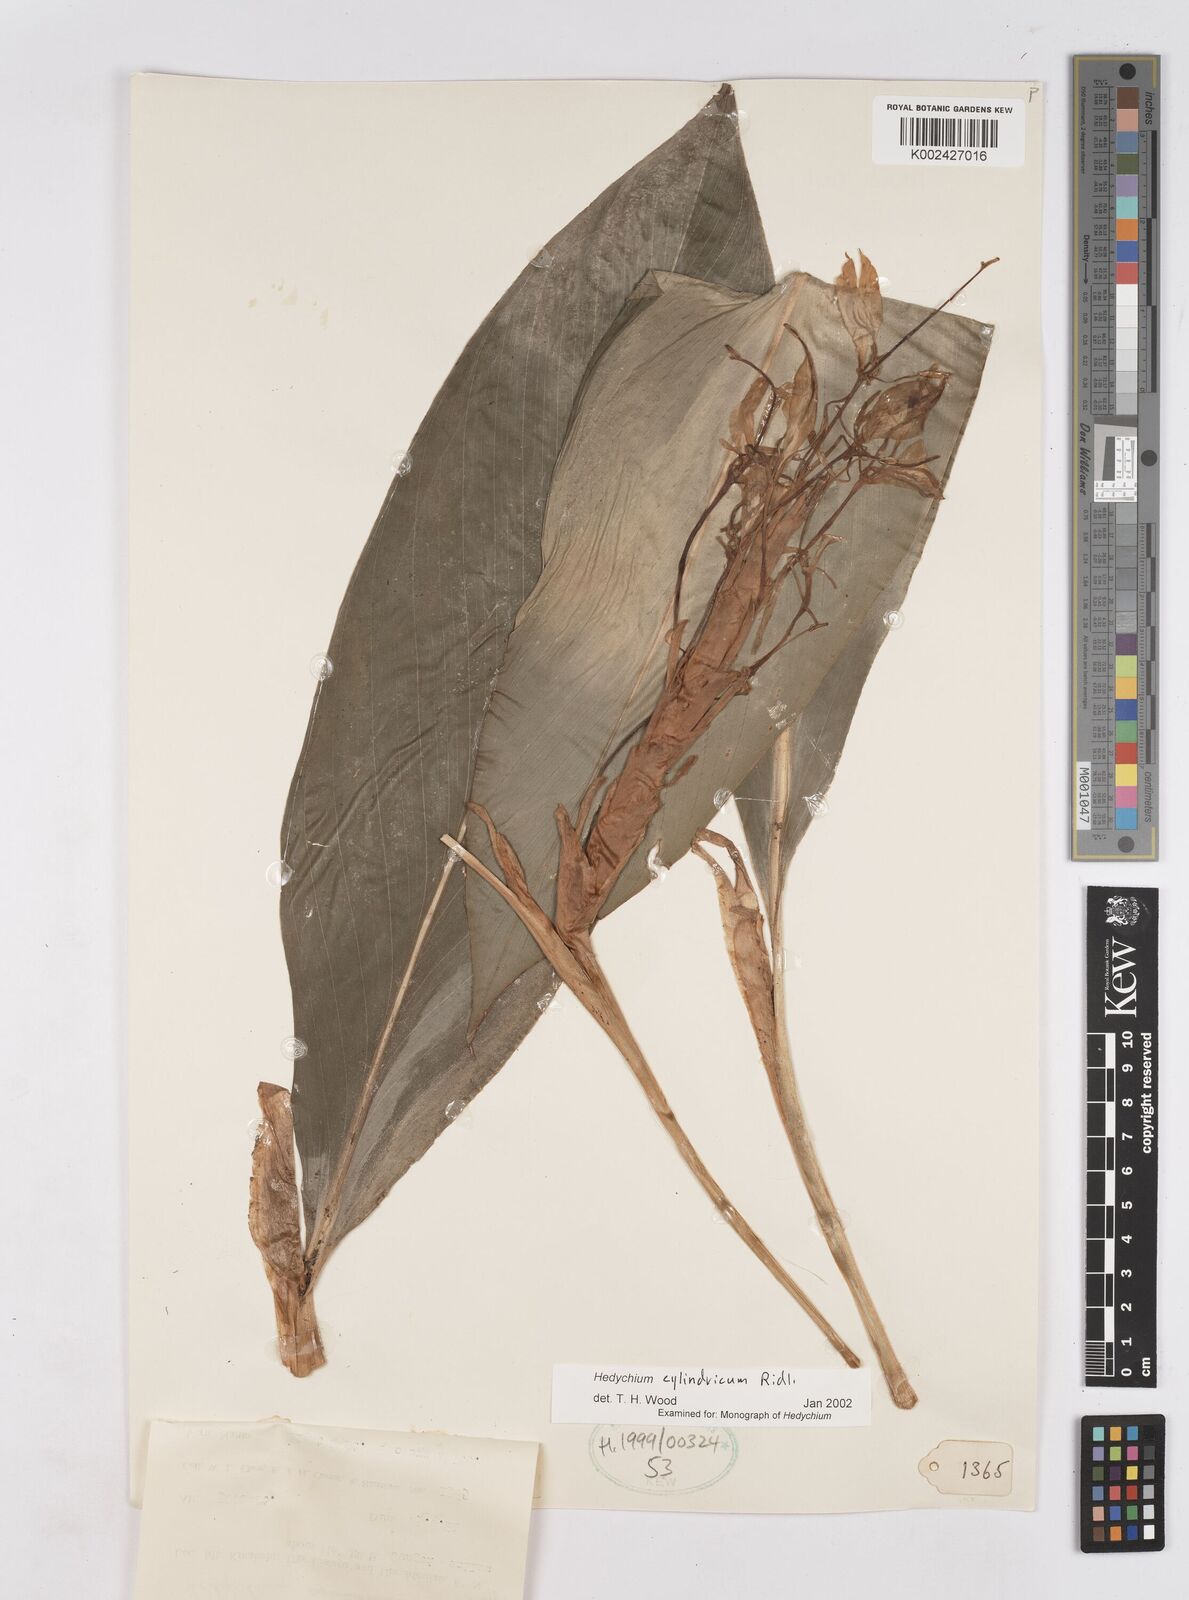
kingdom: Plantae
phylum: Tracheophyta
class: Liliopsida
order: Zingiberales
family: Zingiberaceae
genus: Hedychium
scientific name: Hedychium cylindricum
